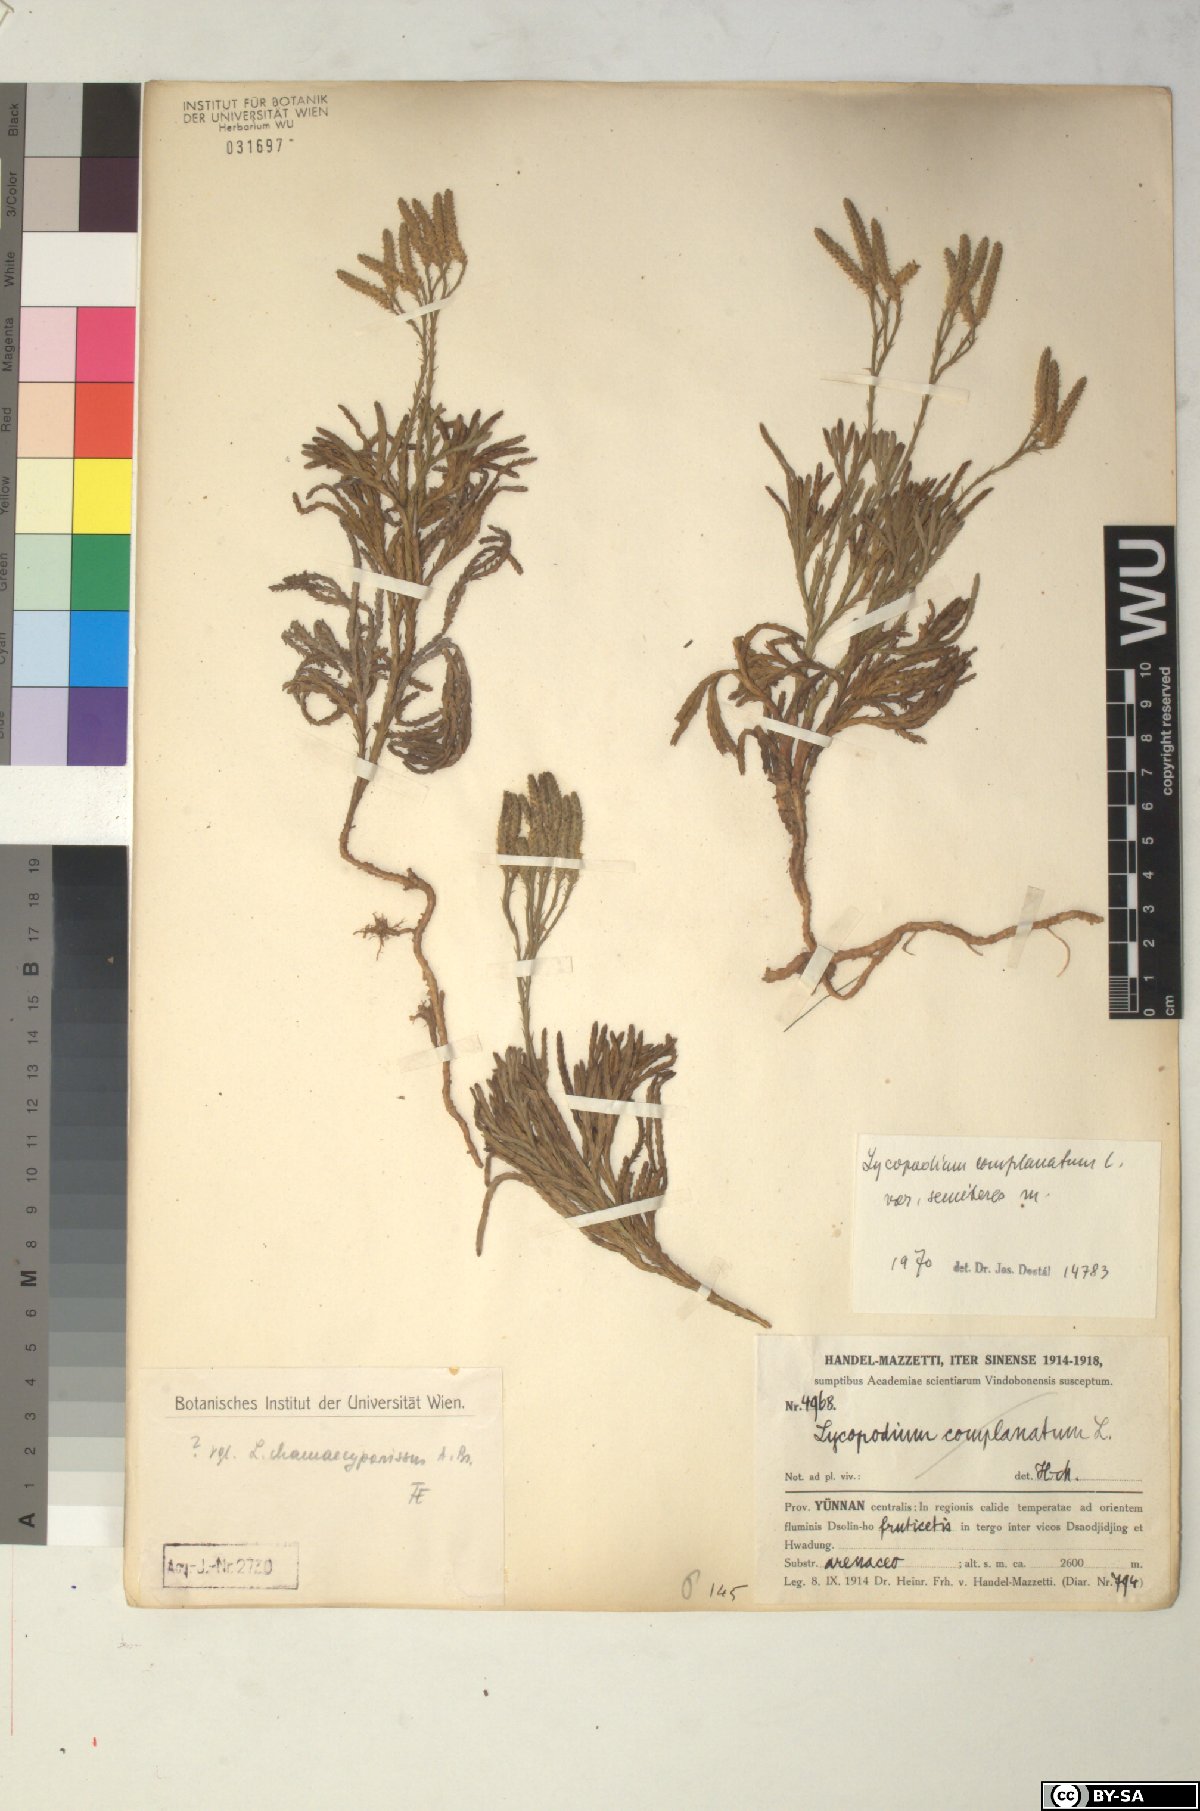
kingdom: Plantae
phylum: Tracheophyta
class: Lycopodiopsida
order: Lycopodiales
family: Lycopodiaceae
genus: Diphasiastrum
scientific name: Diphasiastrum complanatum
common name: Northern running-pine
